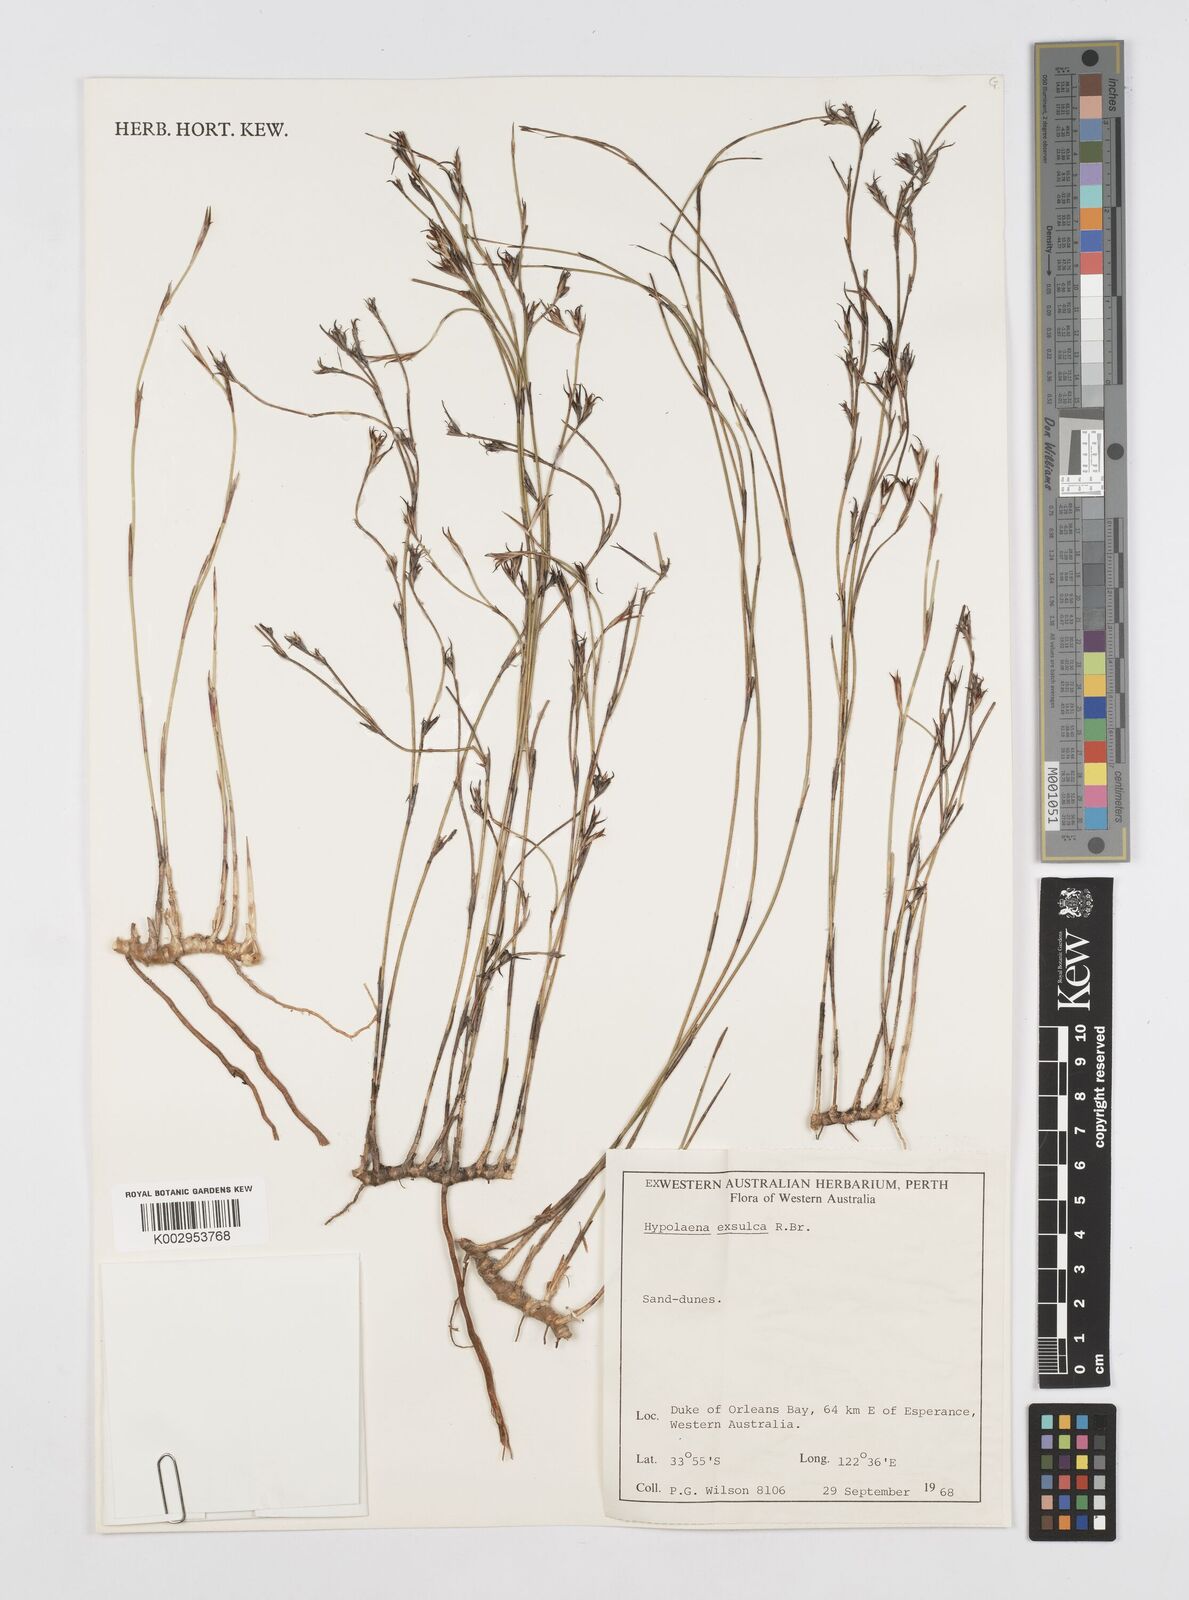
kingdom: Plantae
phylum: Tracheophyta
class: Liliopsida
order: Poales
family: Restionaceae
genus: Hypolaena
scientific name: Hypolaena exsulca
